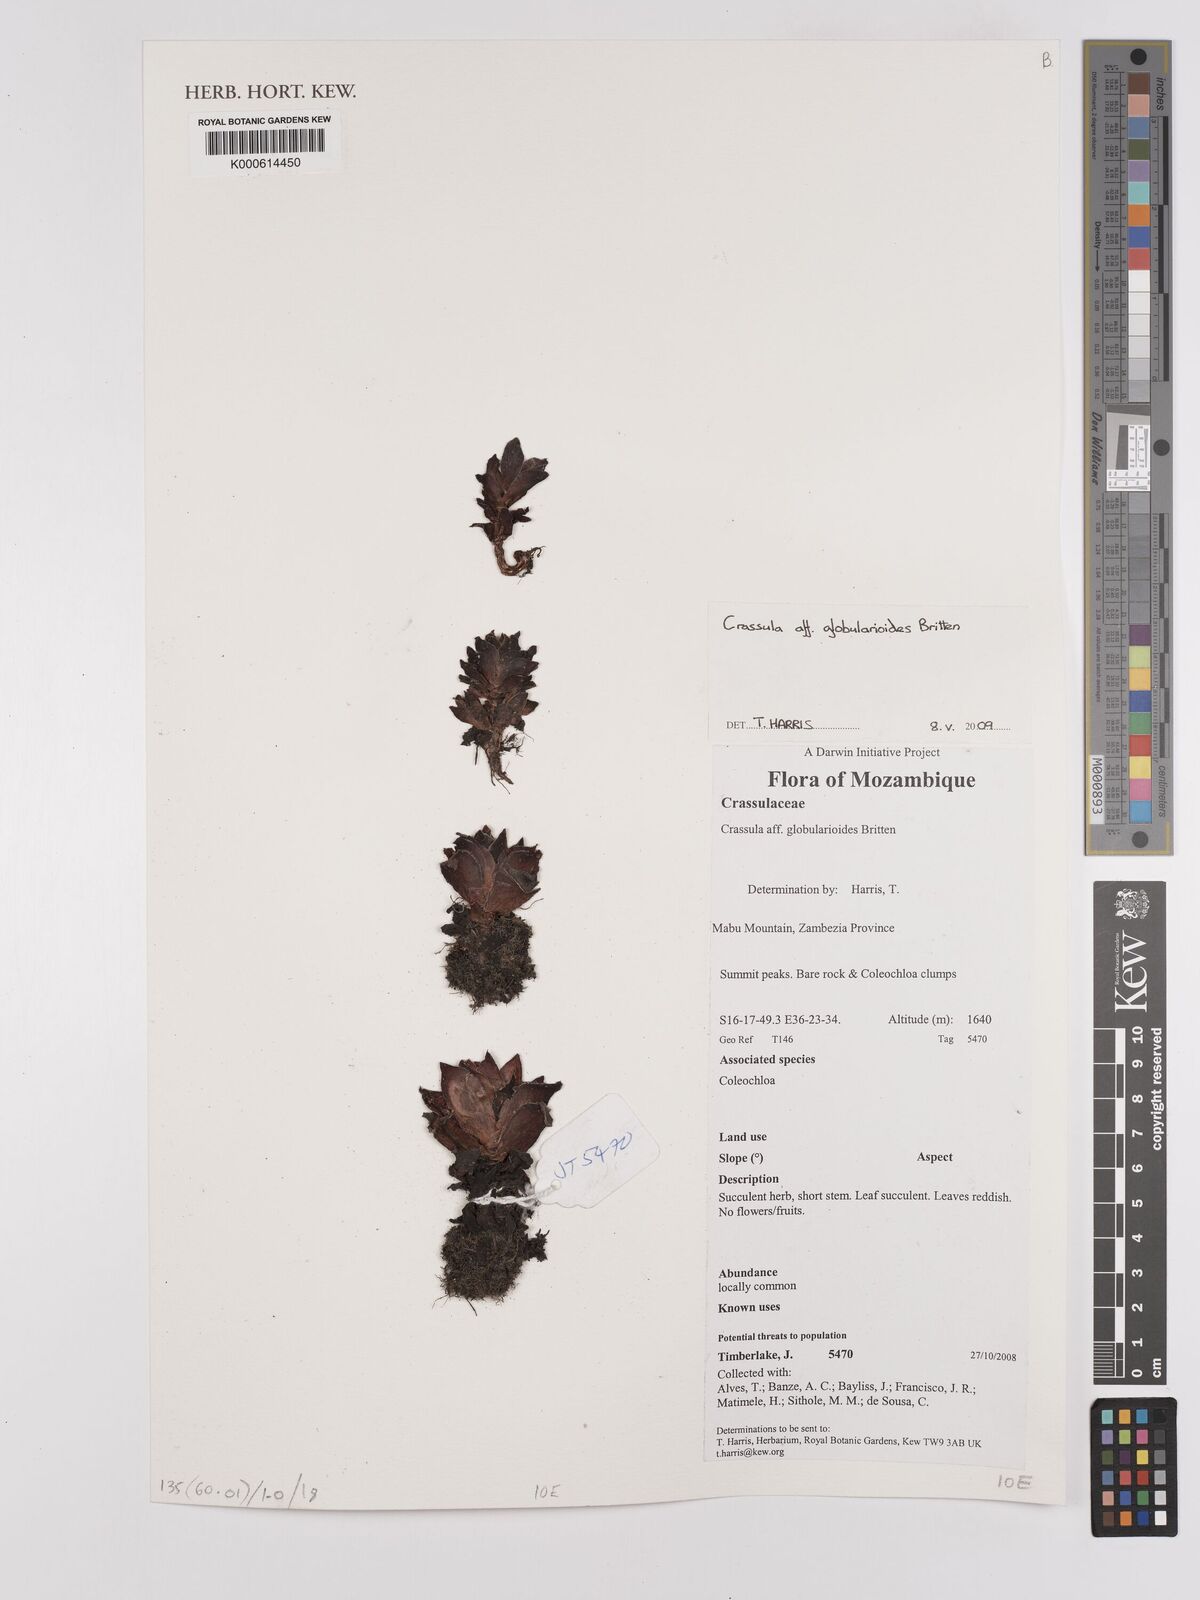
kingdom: Plantae
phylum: Tracheophyta
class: Magnoliopsida
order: Saxifragales
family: Crassulaceae
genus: Crassula
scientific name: Crassula globularioides
